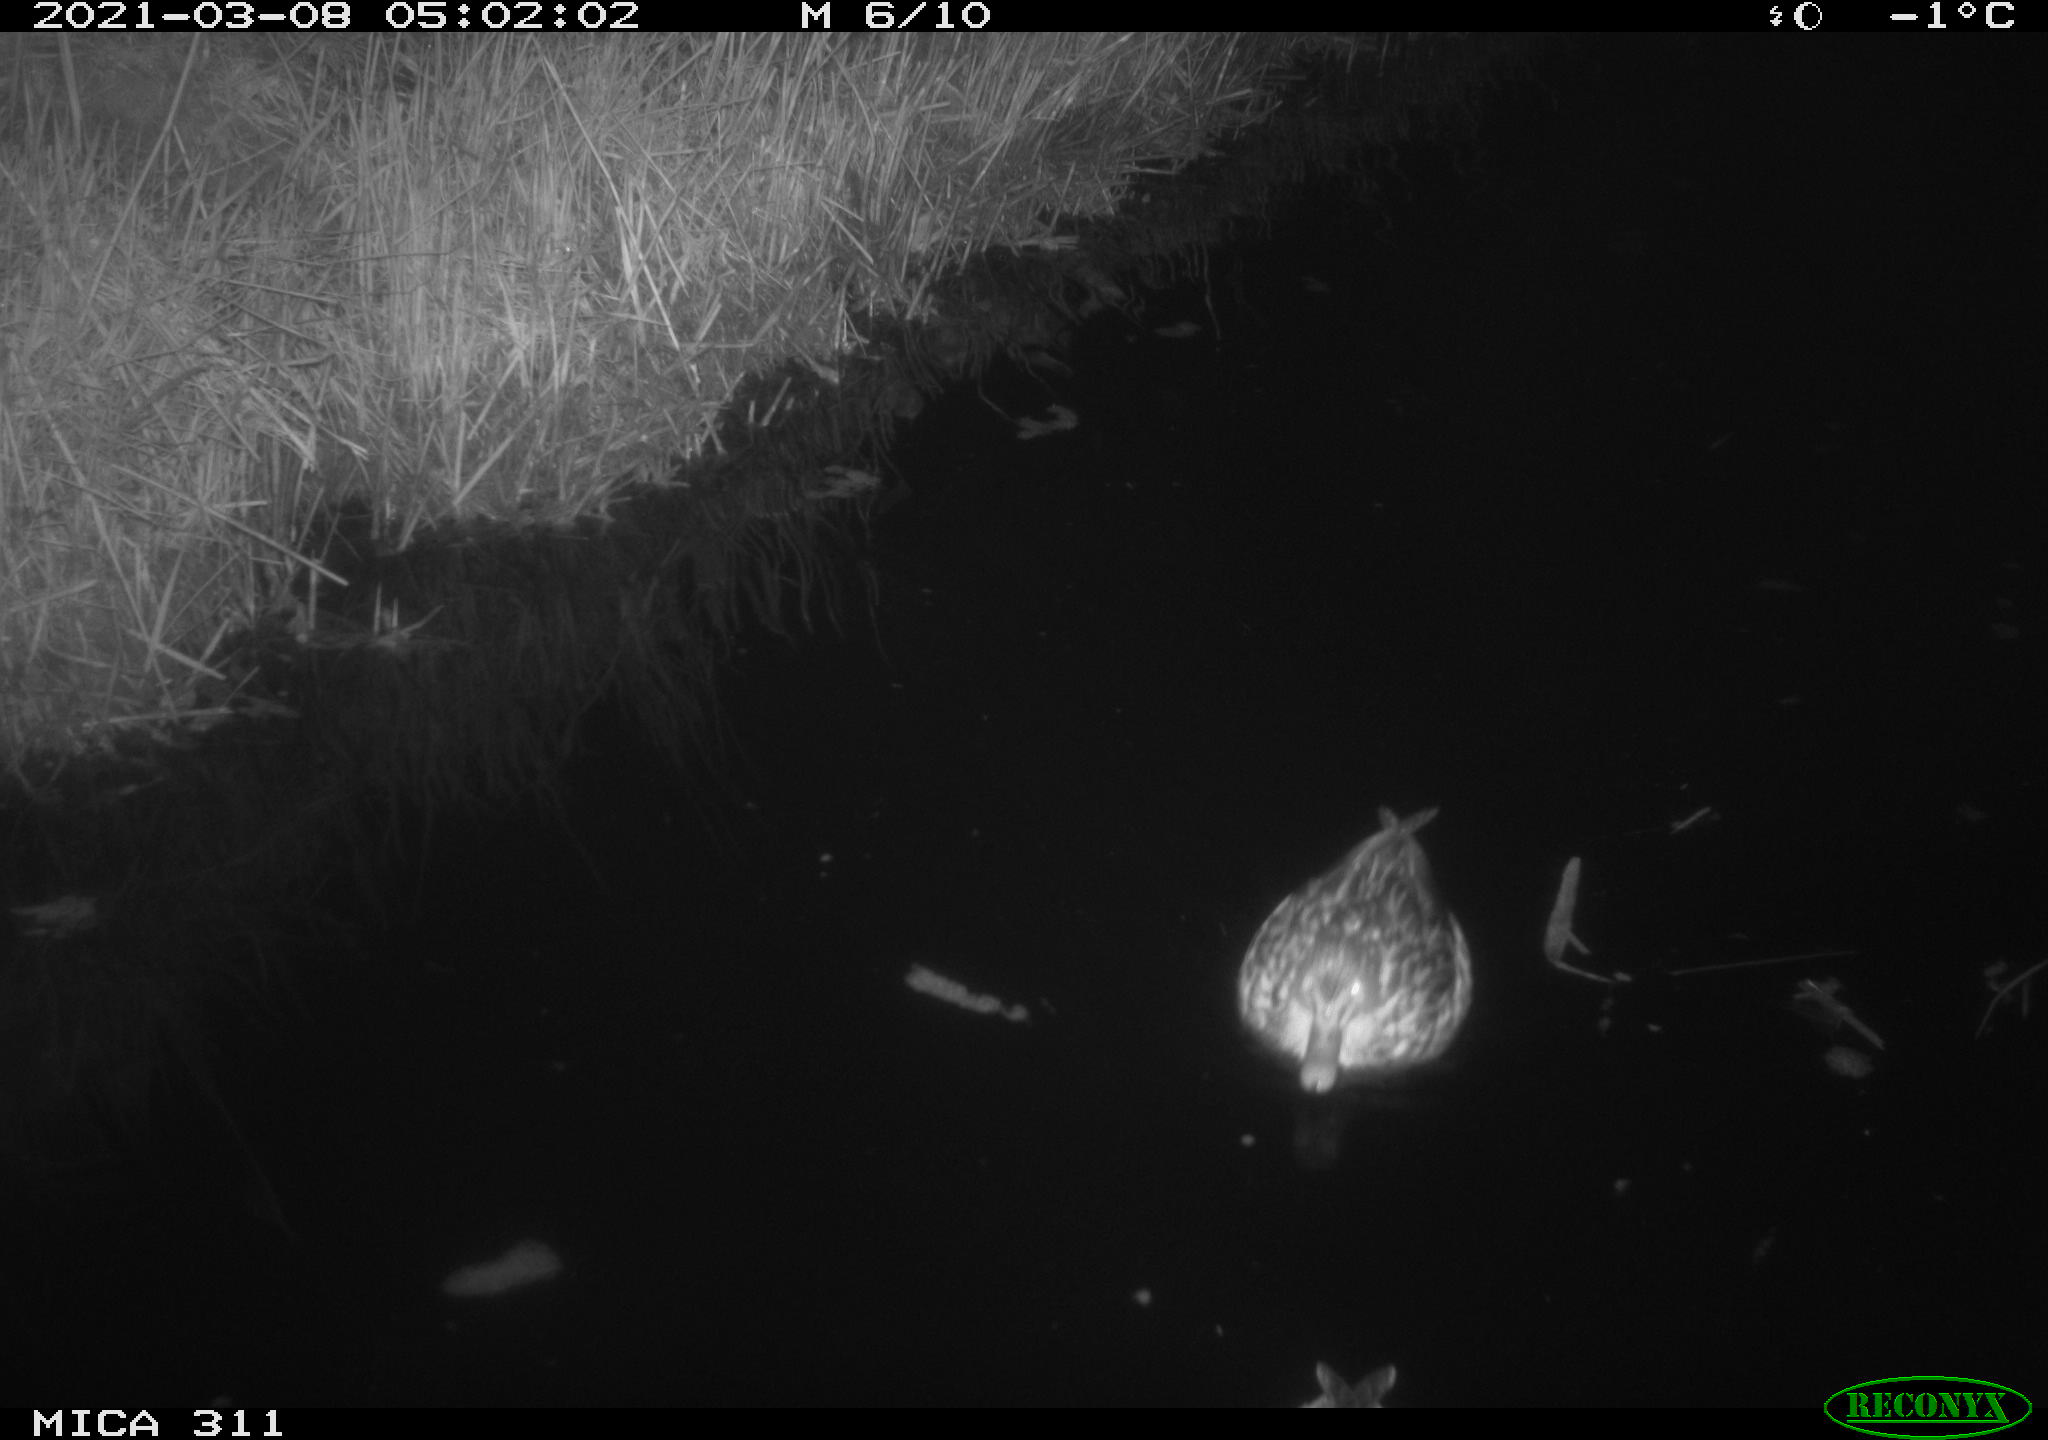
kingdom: Animalia
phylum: Chordata
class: Aves
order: Anseriformes
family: Anatidae
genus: Anas
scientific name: Anas
